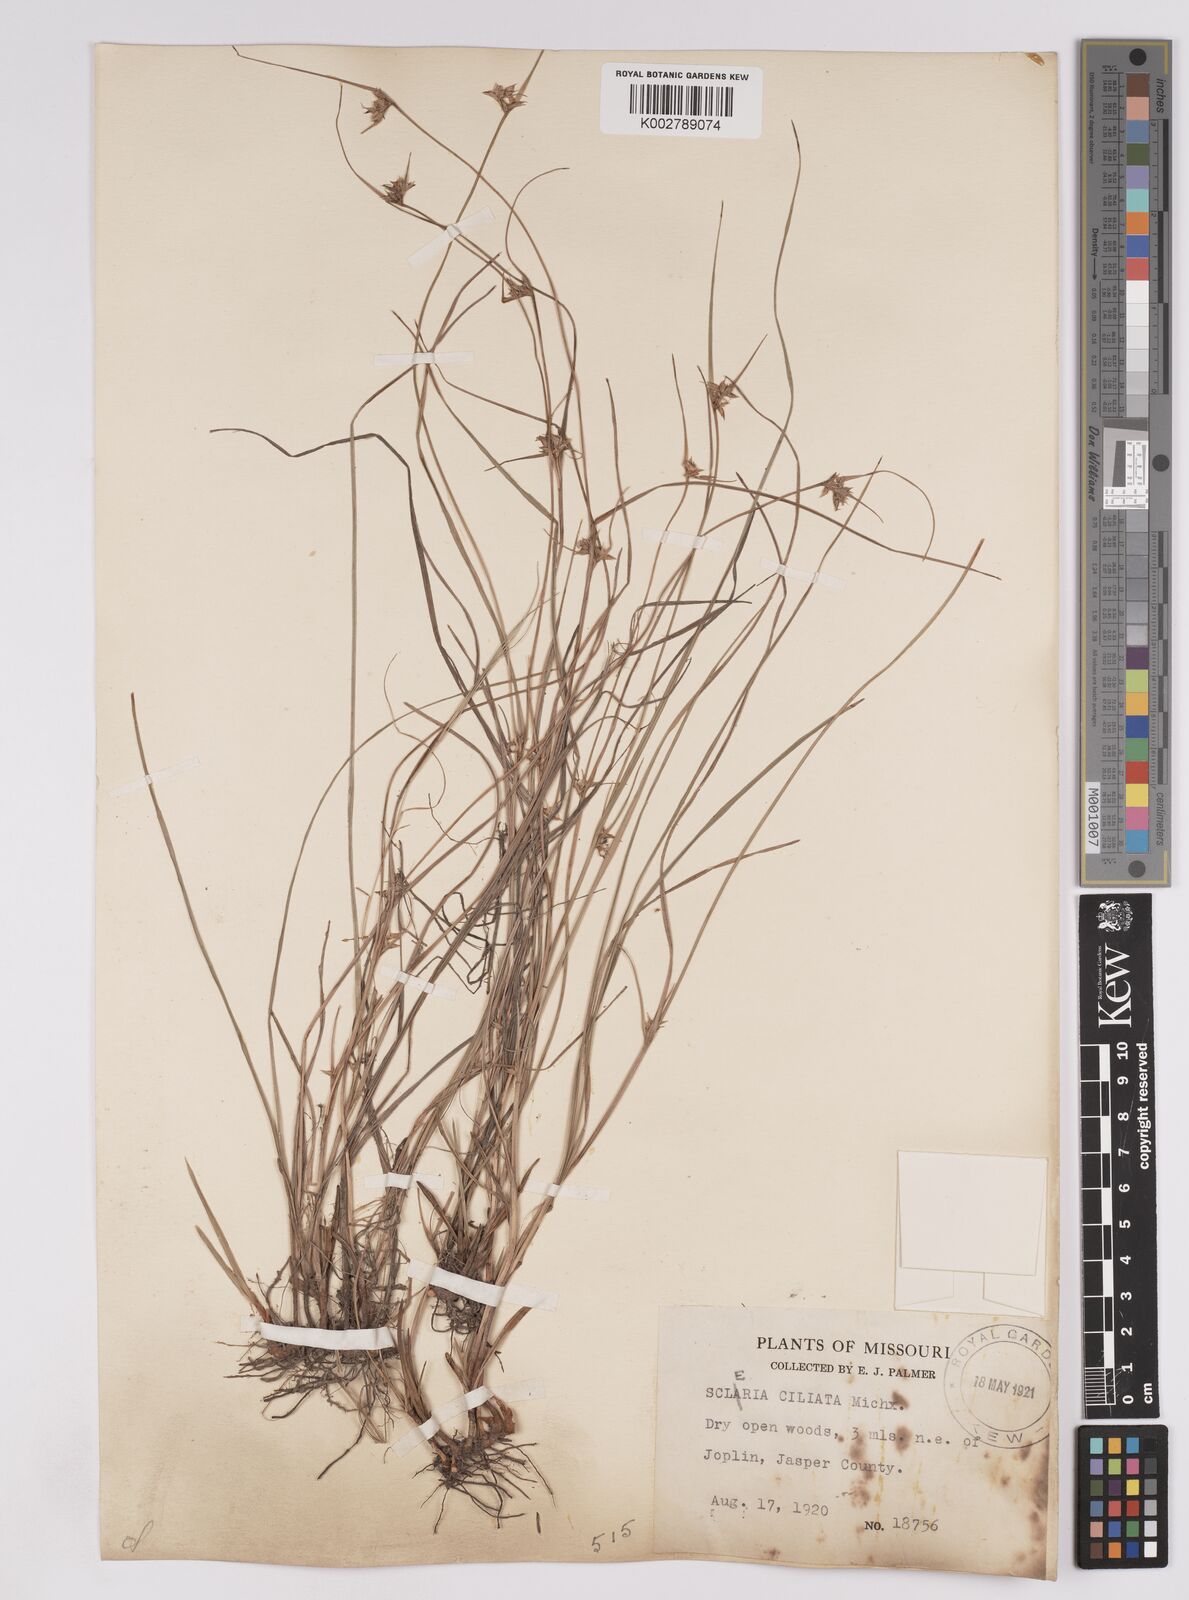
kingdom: Plantae
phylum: Tracheophyta
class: Liliopsida
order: Poales
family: Cyperaceae
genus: Scleria
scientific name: Scleria ciliata
